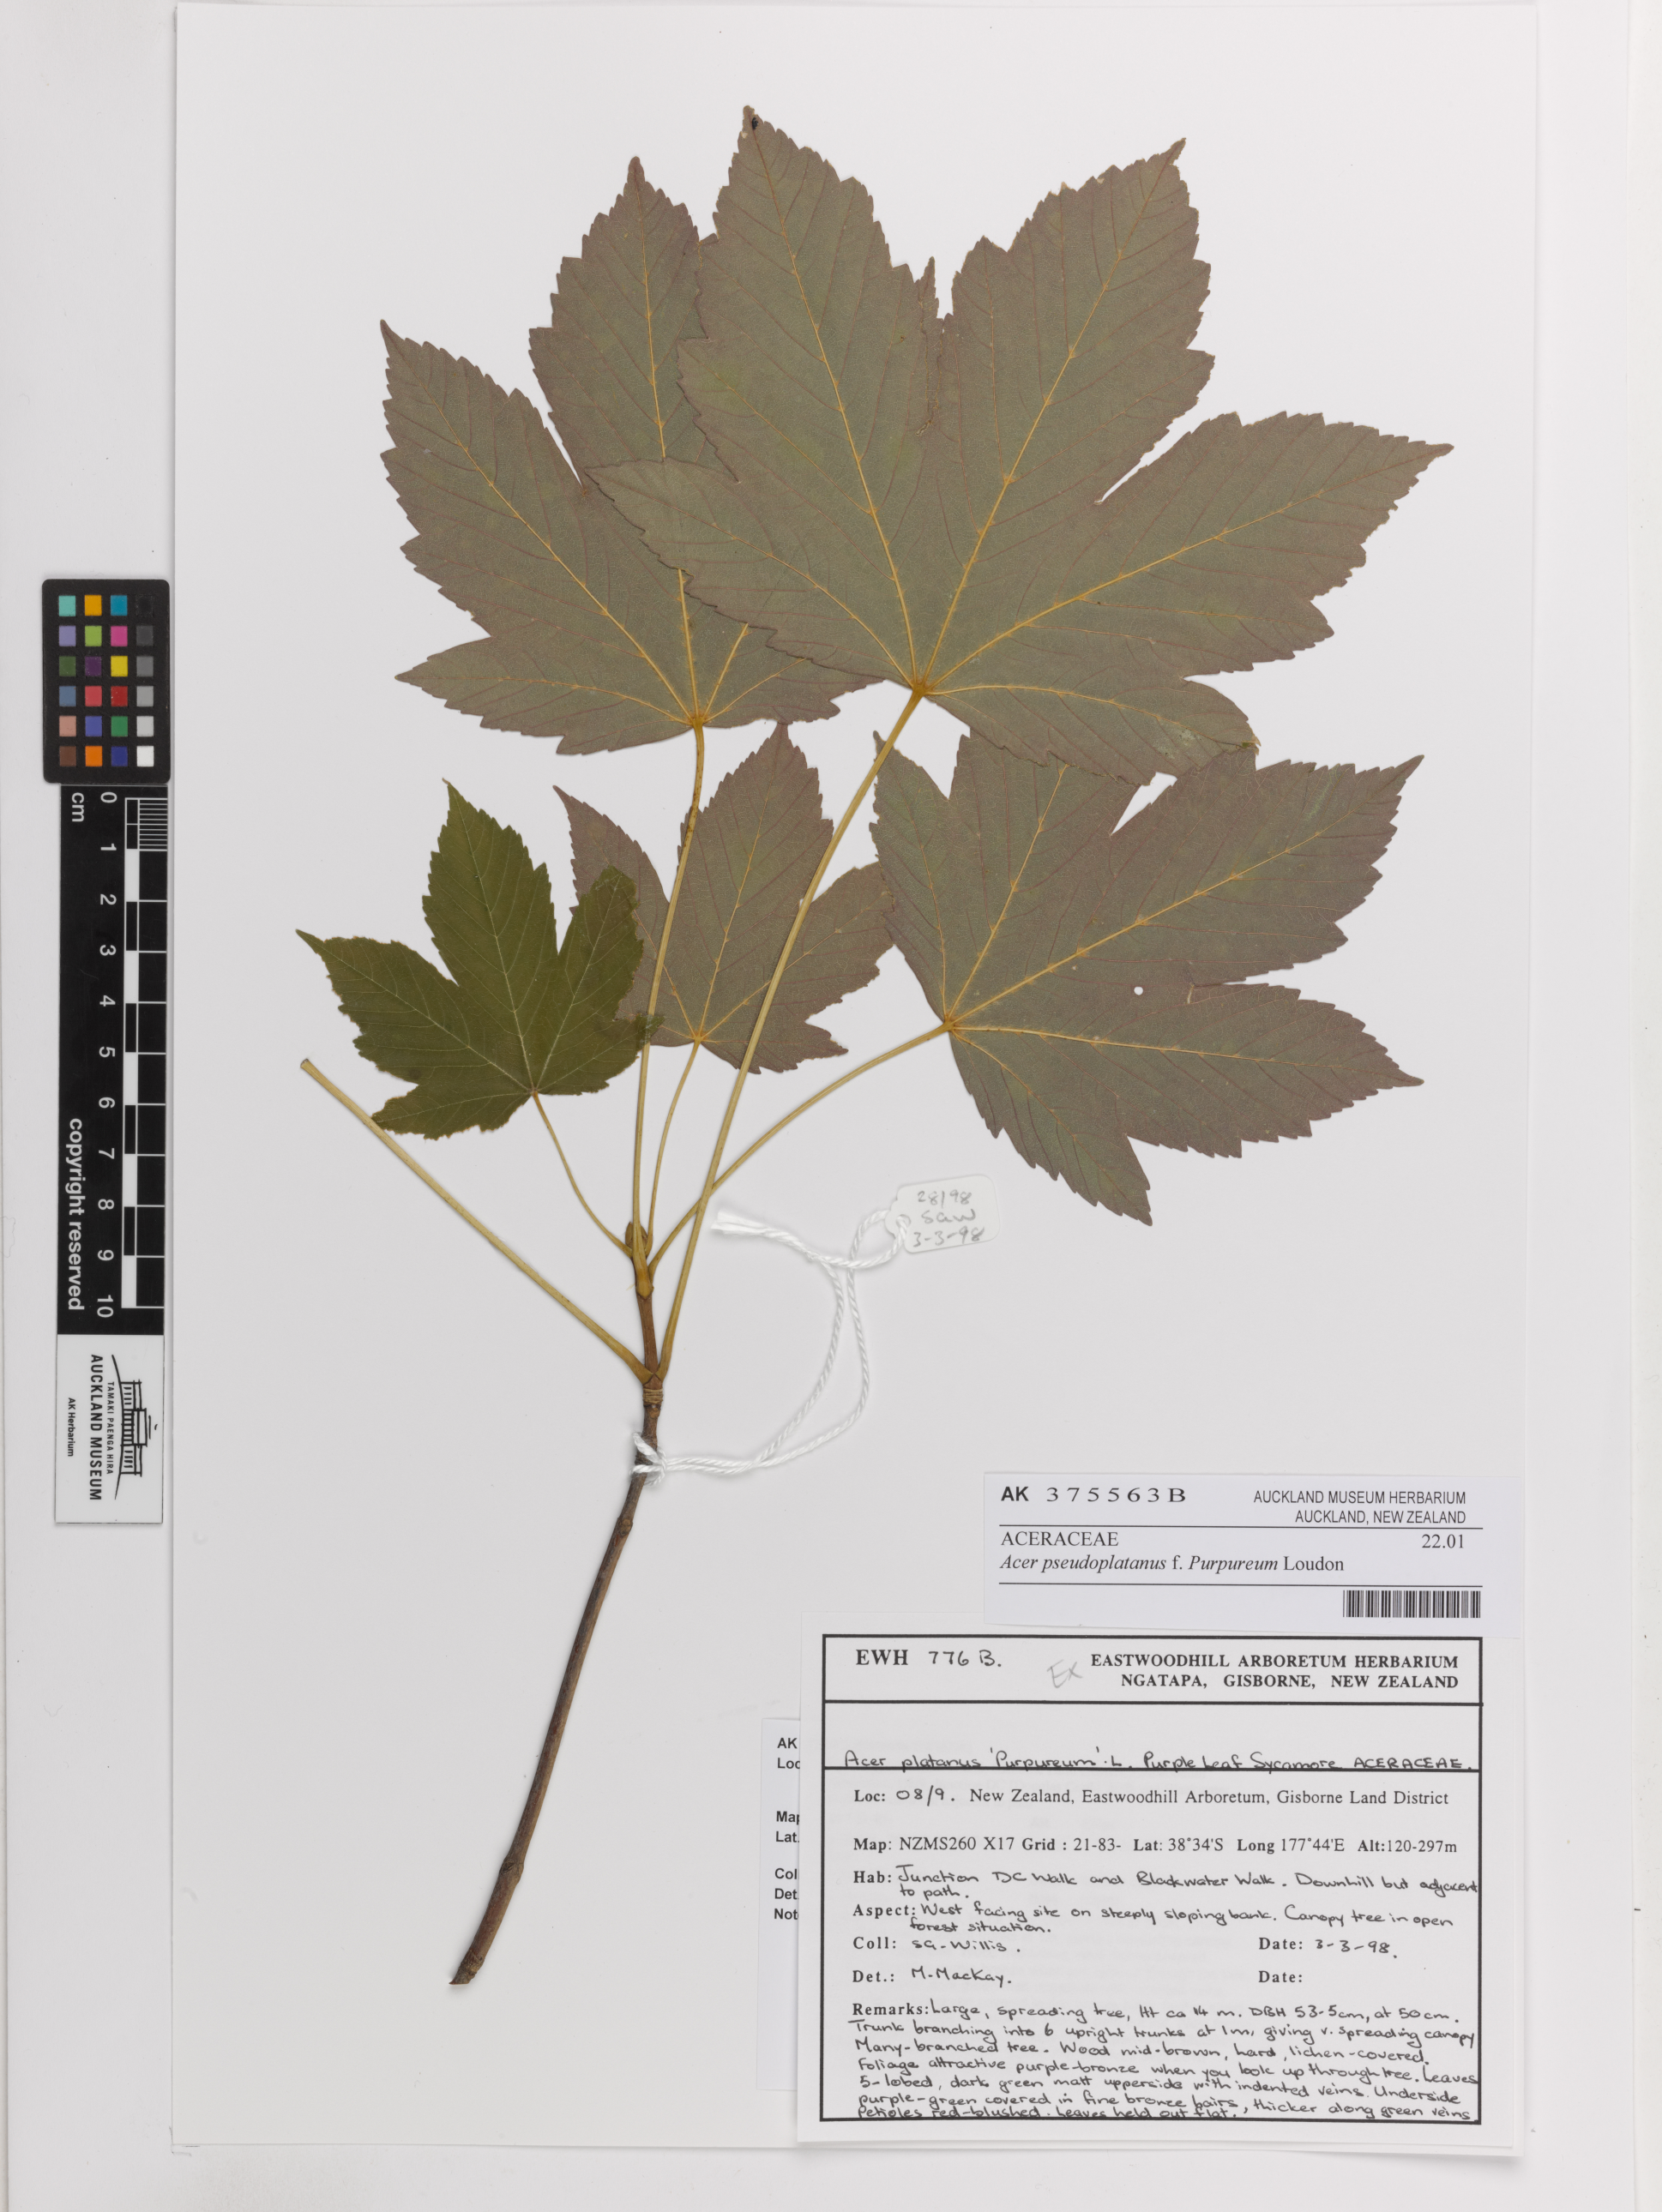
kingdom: Plantae
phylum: Tracheophyta
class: Magnoliopsida
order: Sapindales
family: Sapindaceae
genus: Acer
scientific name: Acer pseudoplatanus
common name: Sycamore
